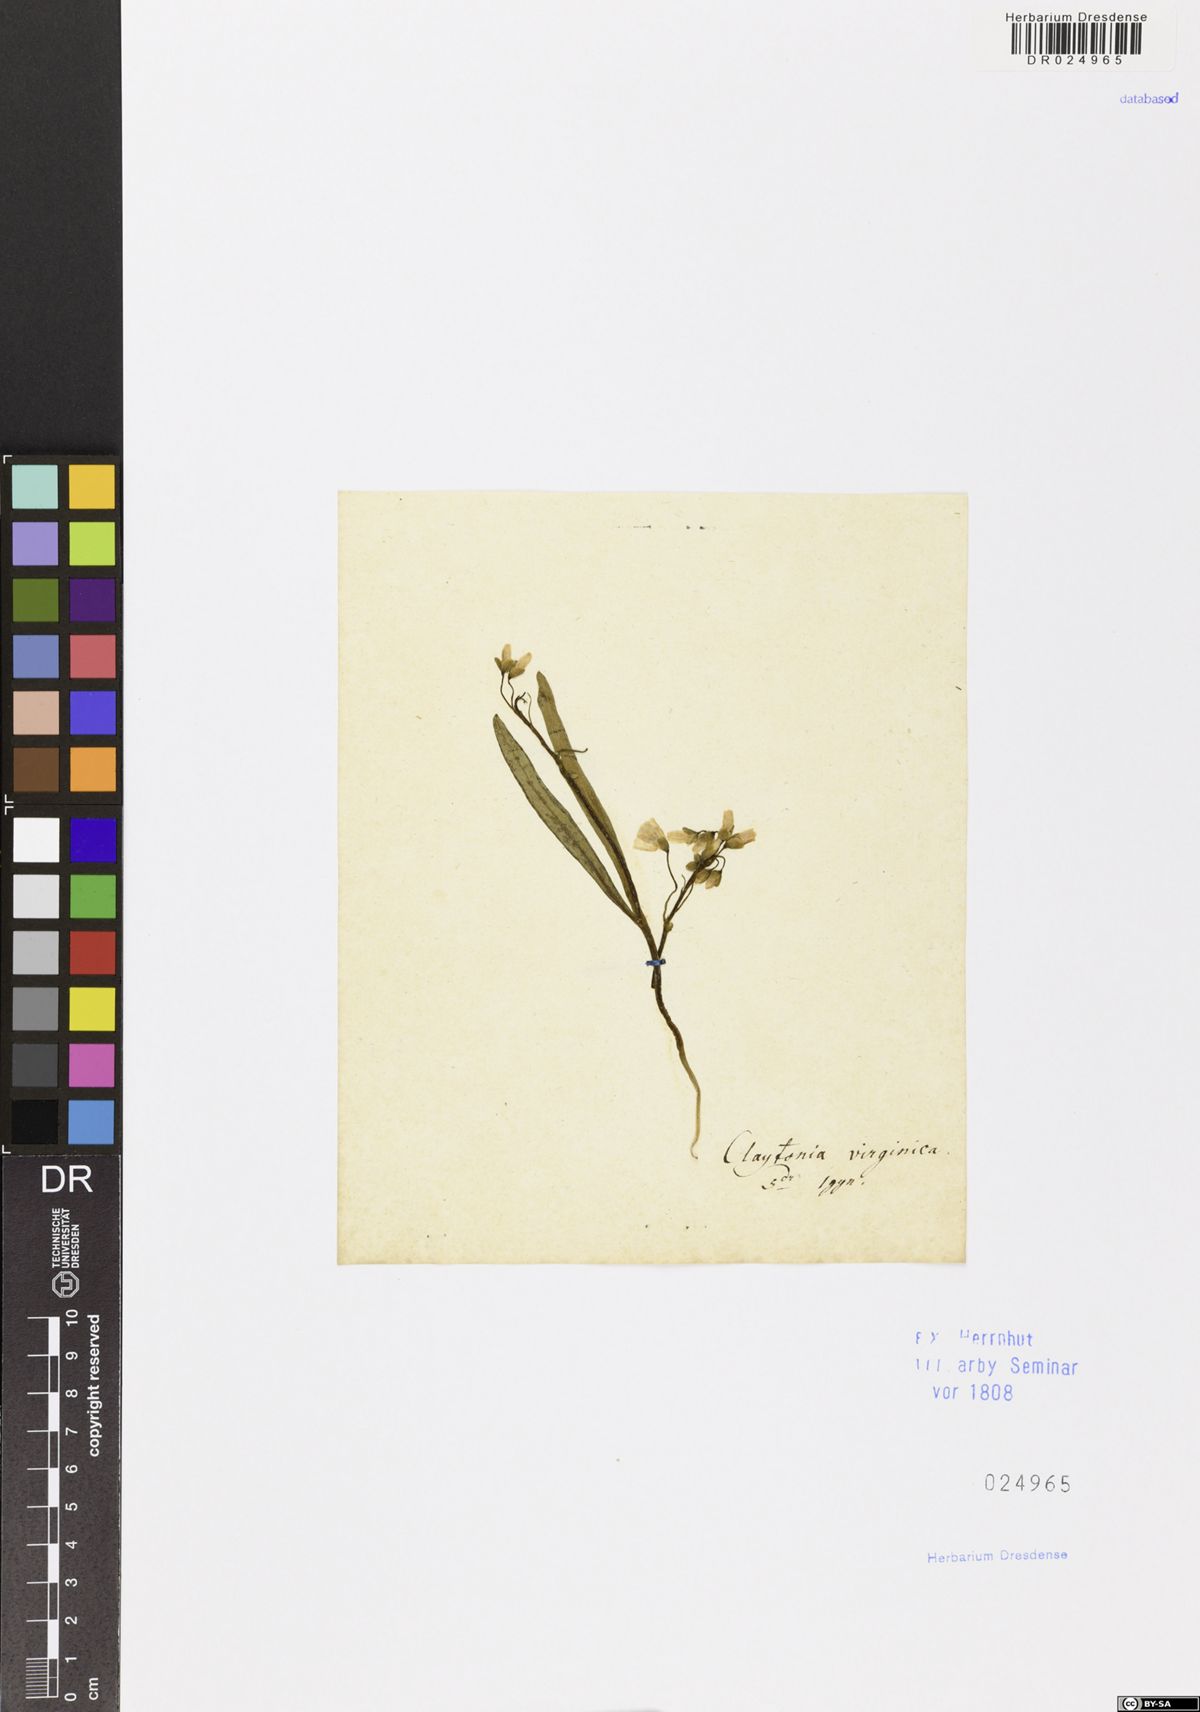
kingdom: Plantae
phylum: Tracheophyta
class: Magnoliopsida
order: Caryophyllales
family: Montiaceae
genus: Claytonia
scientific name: Claytonia virginica
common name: Virginia springbeauty
